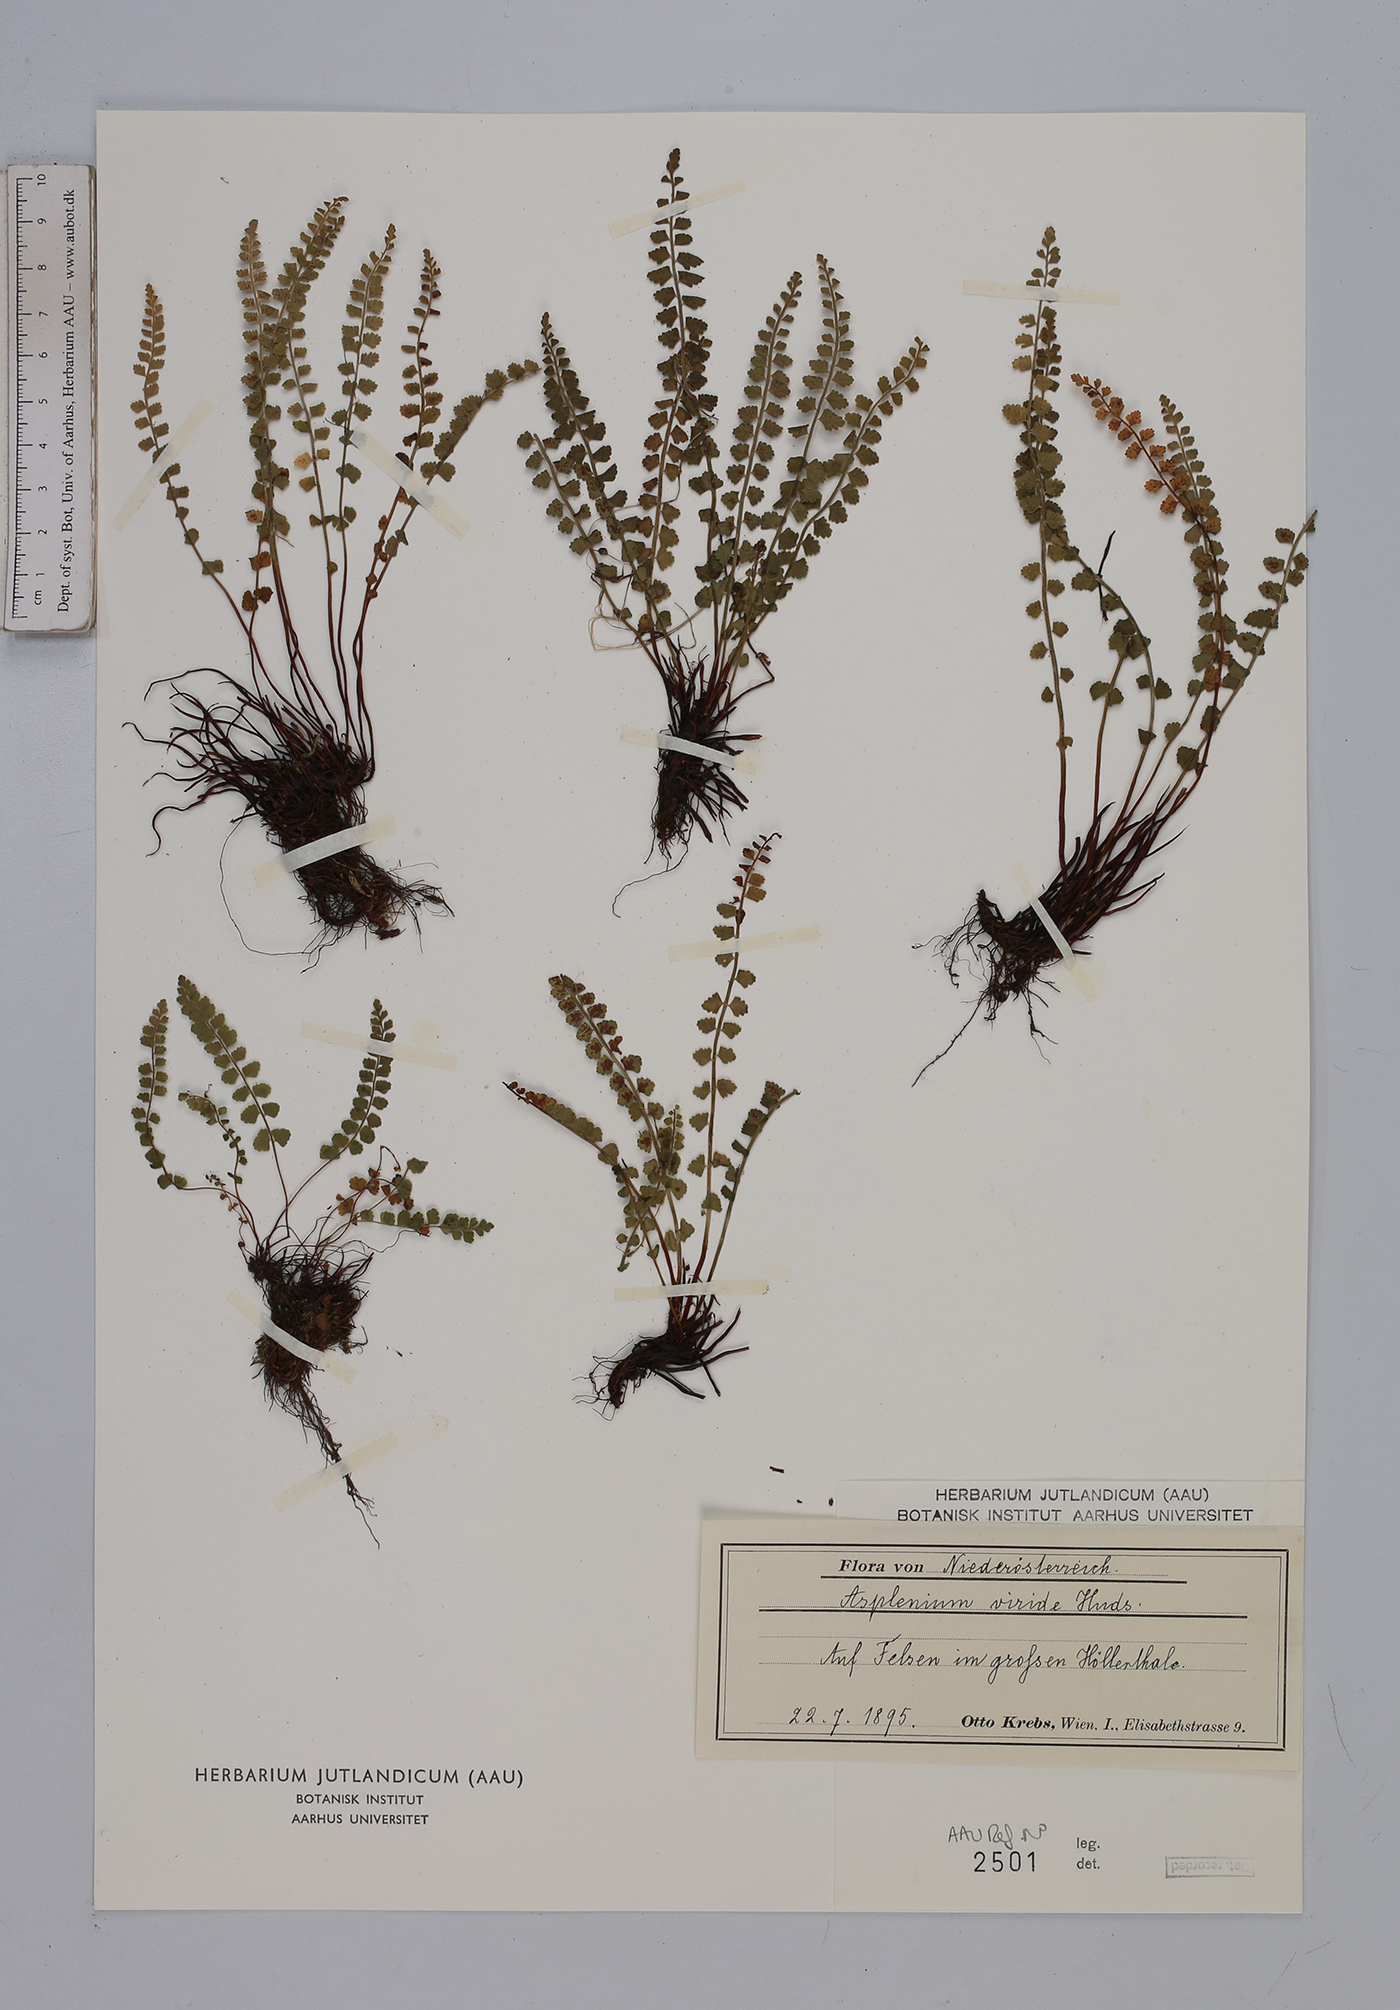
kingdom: Plantae
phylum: Tracheophyta
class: Polypodiopsida
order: Polypodiales
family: Aspleniaceae
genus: Asplenium
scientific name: Asplenium viride
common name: Green spleenwort
